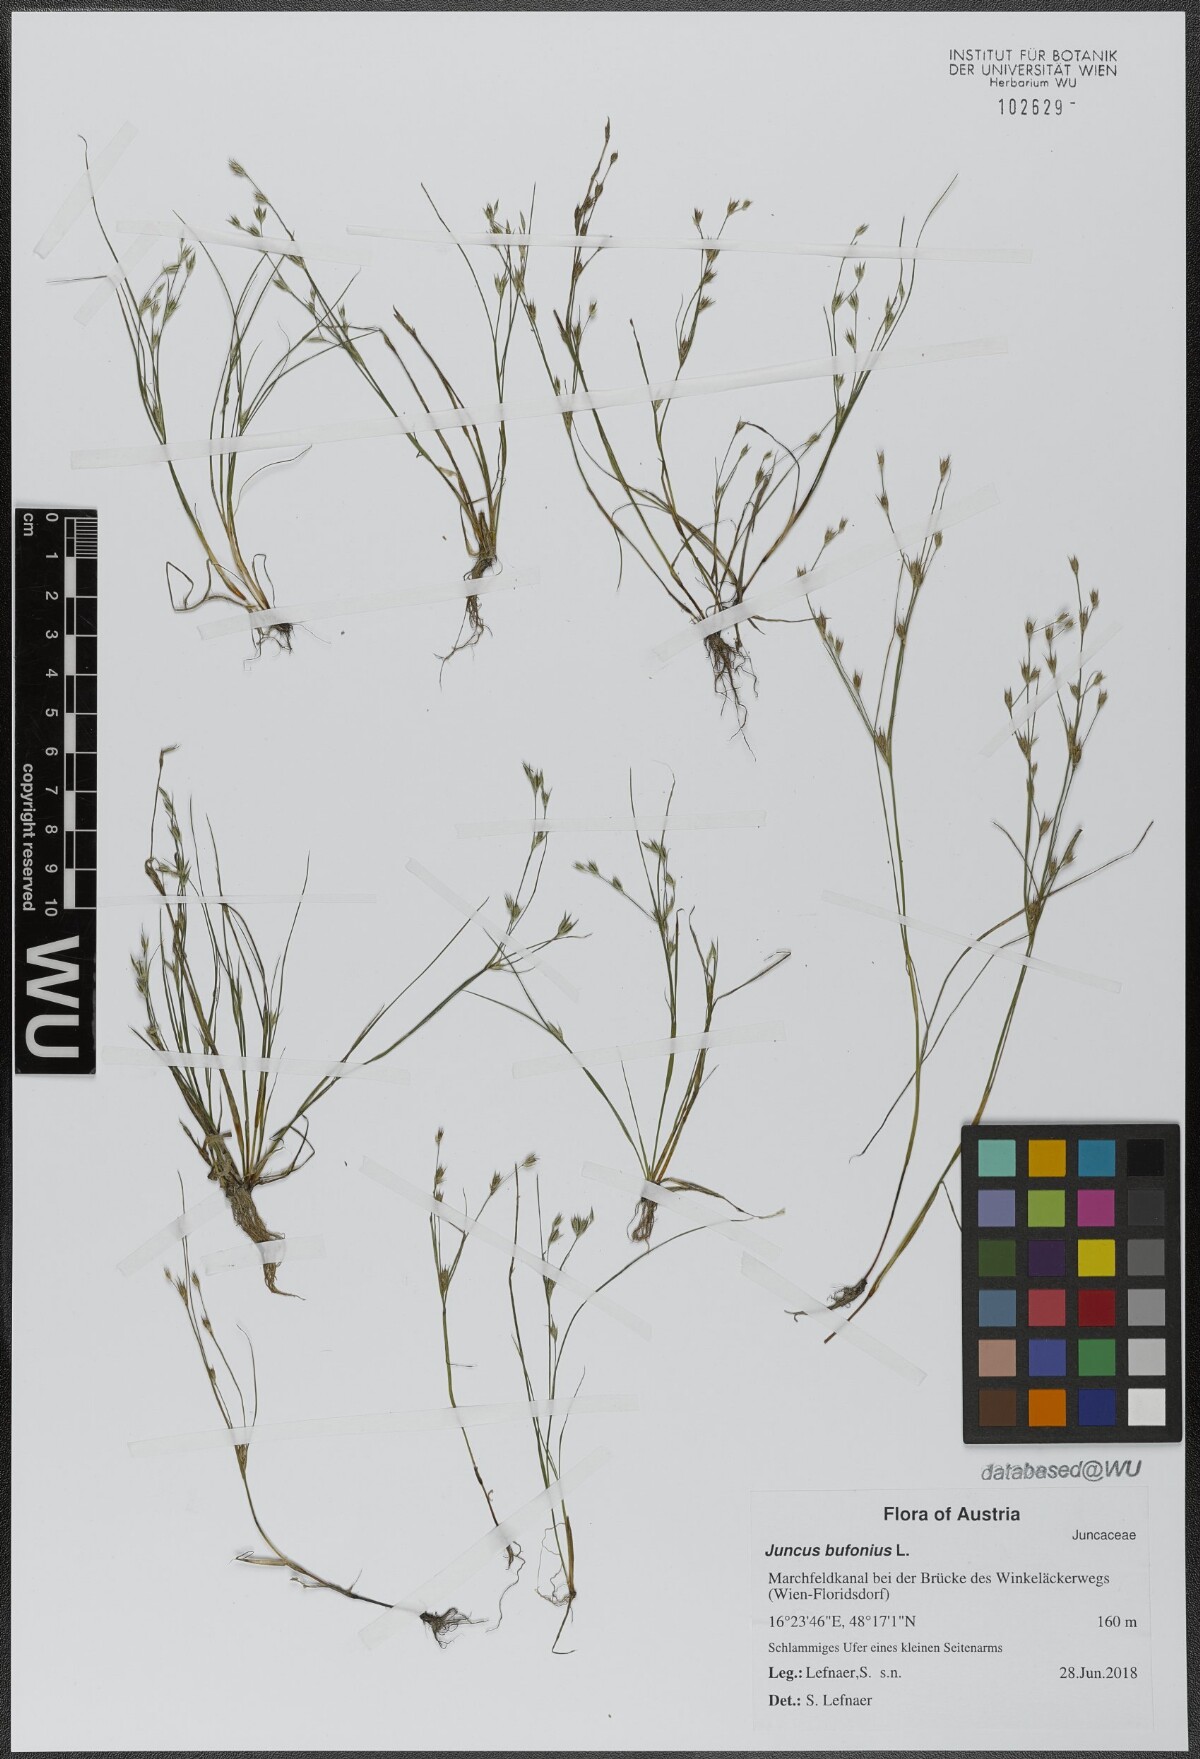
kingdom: Plantae
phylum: Tracheophyta
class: Liliopsida
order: Poales
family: Juncaceae
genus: Juncus
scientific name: Juncus bufonius
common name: Toad rush
